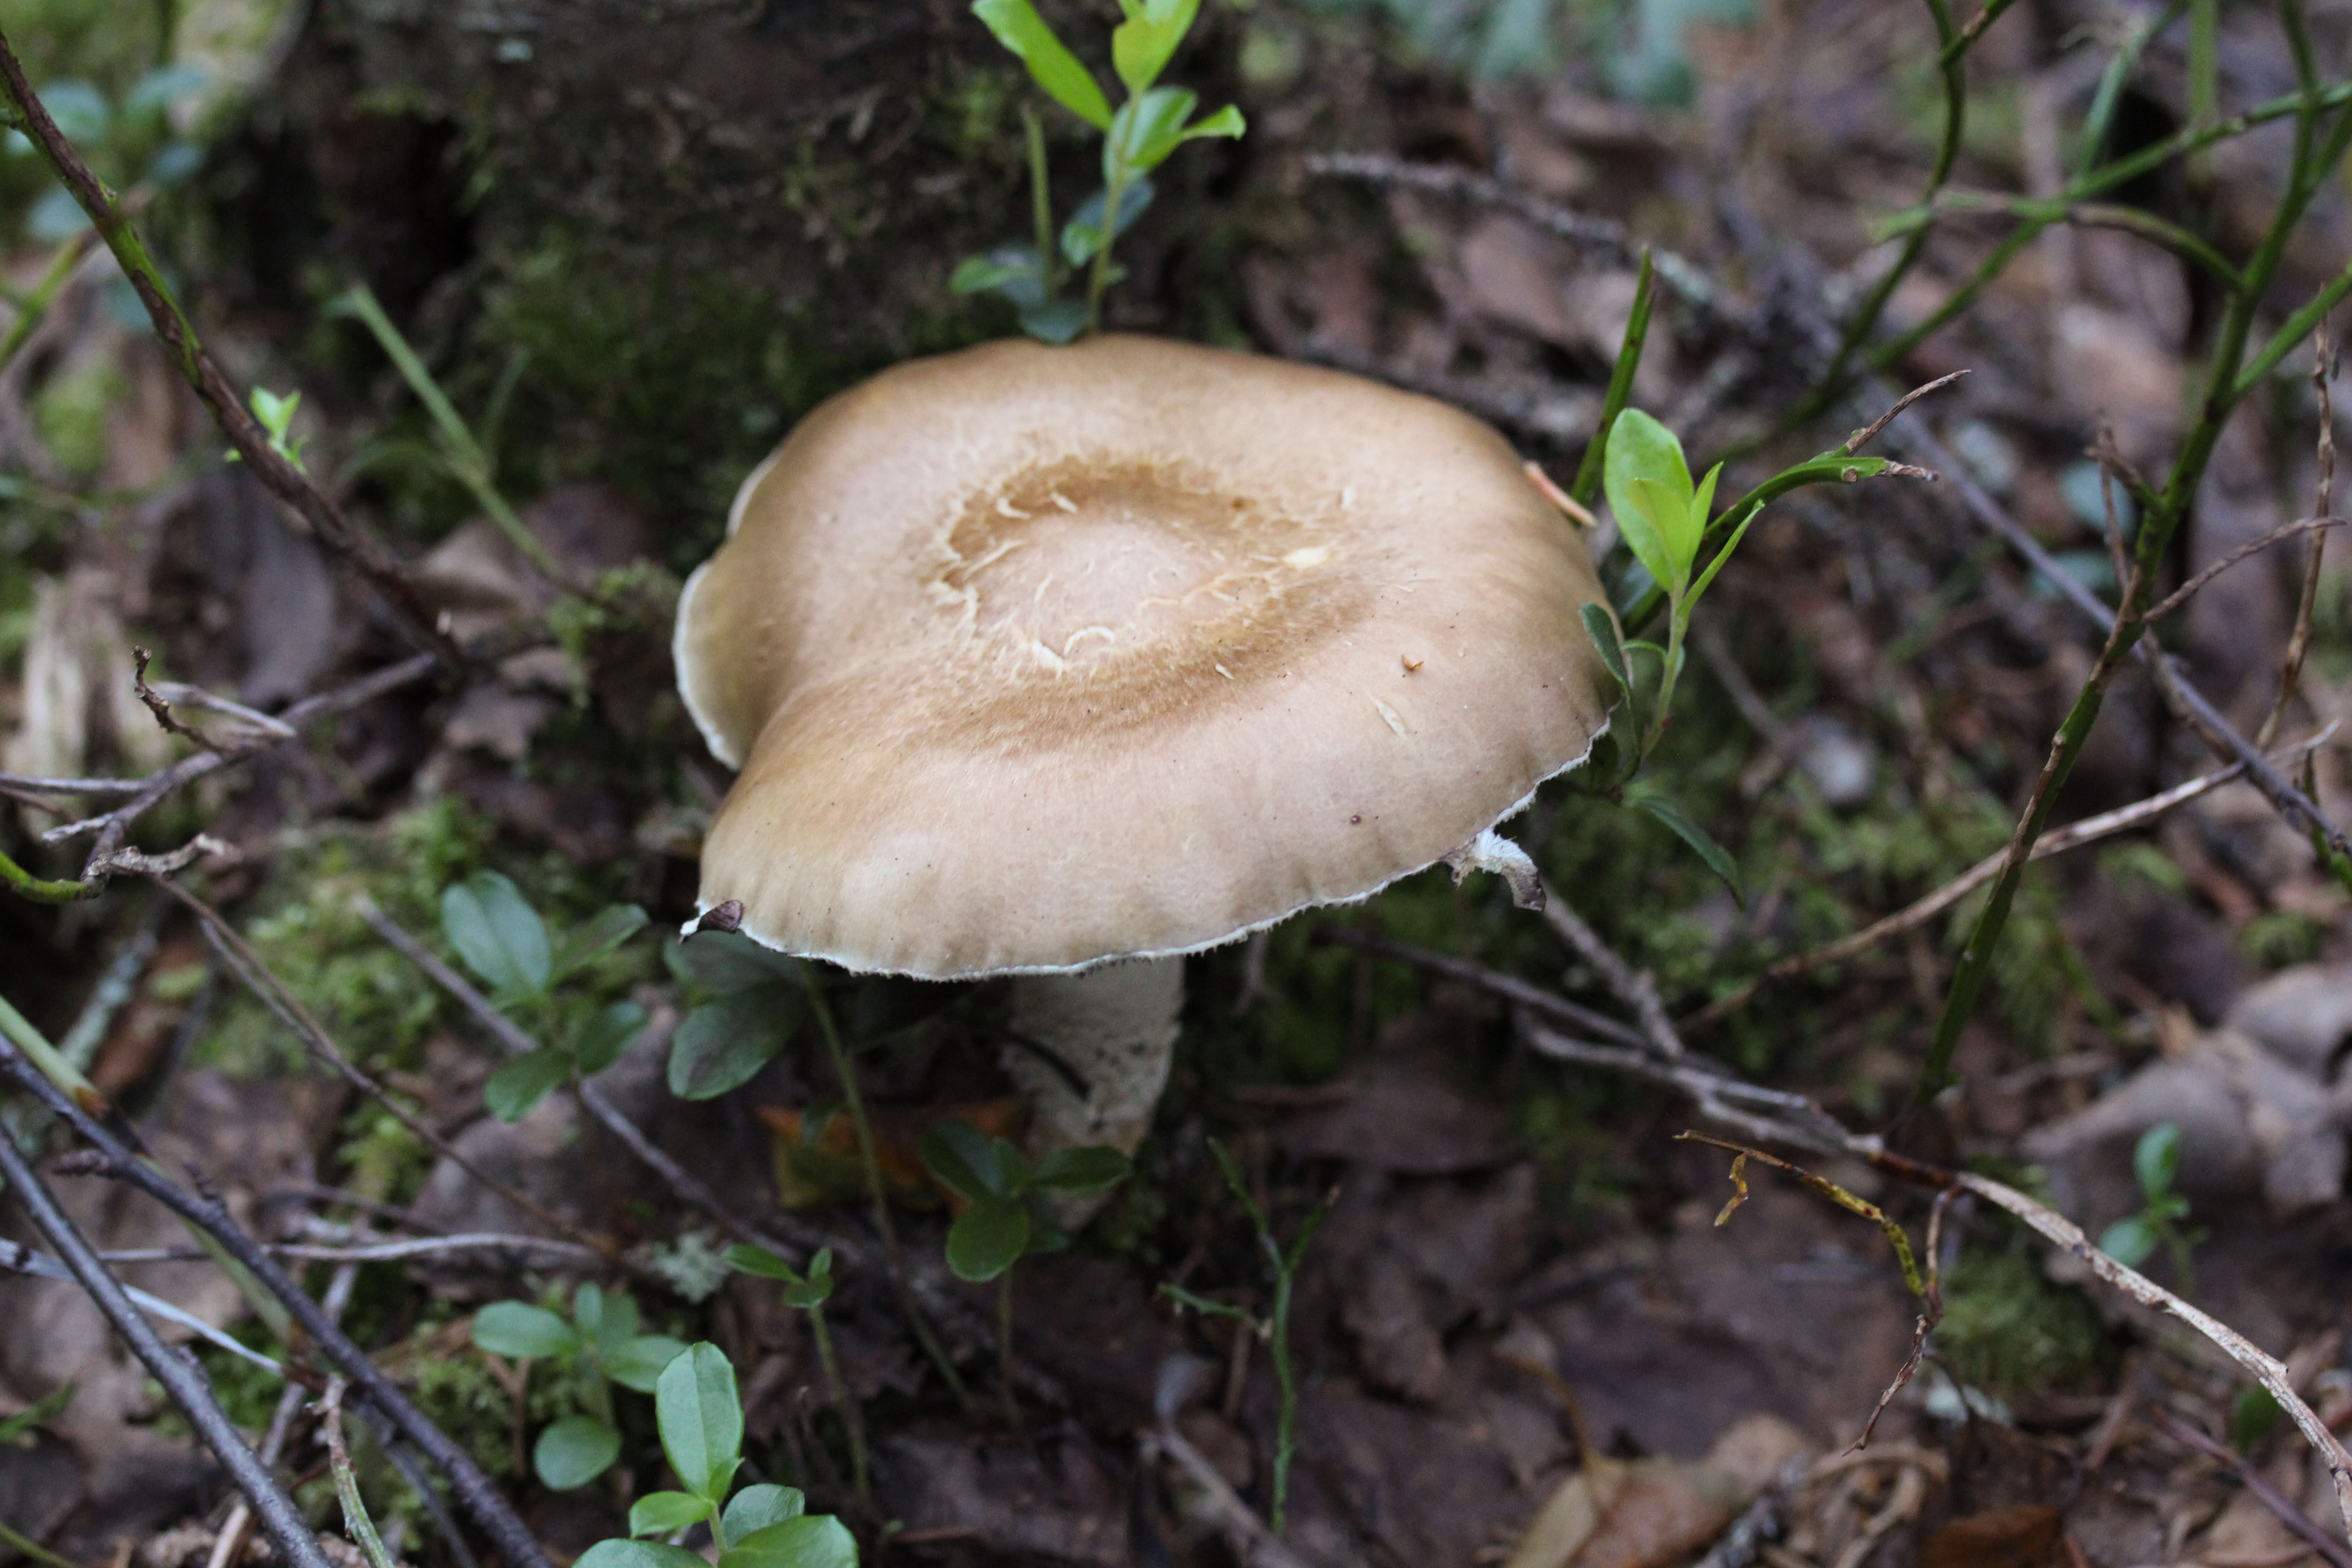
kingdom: Fungi
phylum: Basidiomycota
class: Agaricomycetes
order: Agaricales
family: Strophariaceae
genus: Stropharia
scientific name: Stropharia hornemannii
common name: Conifer roundhead
